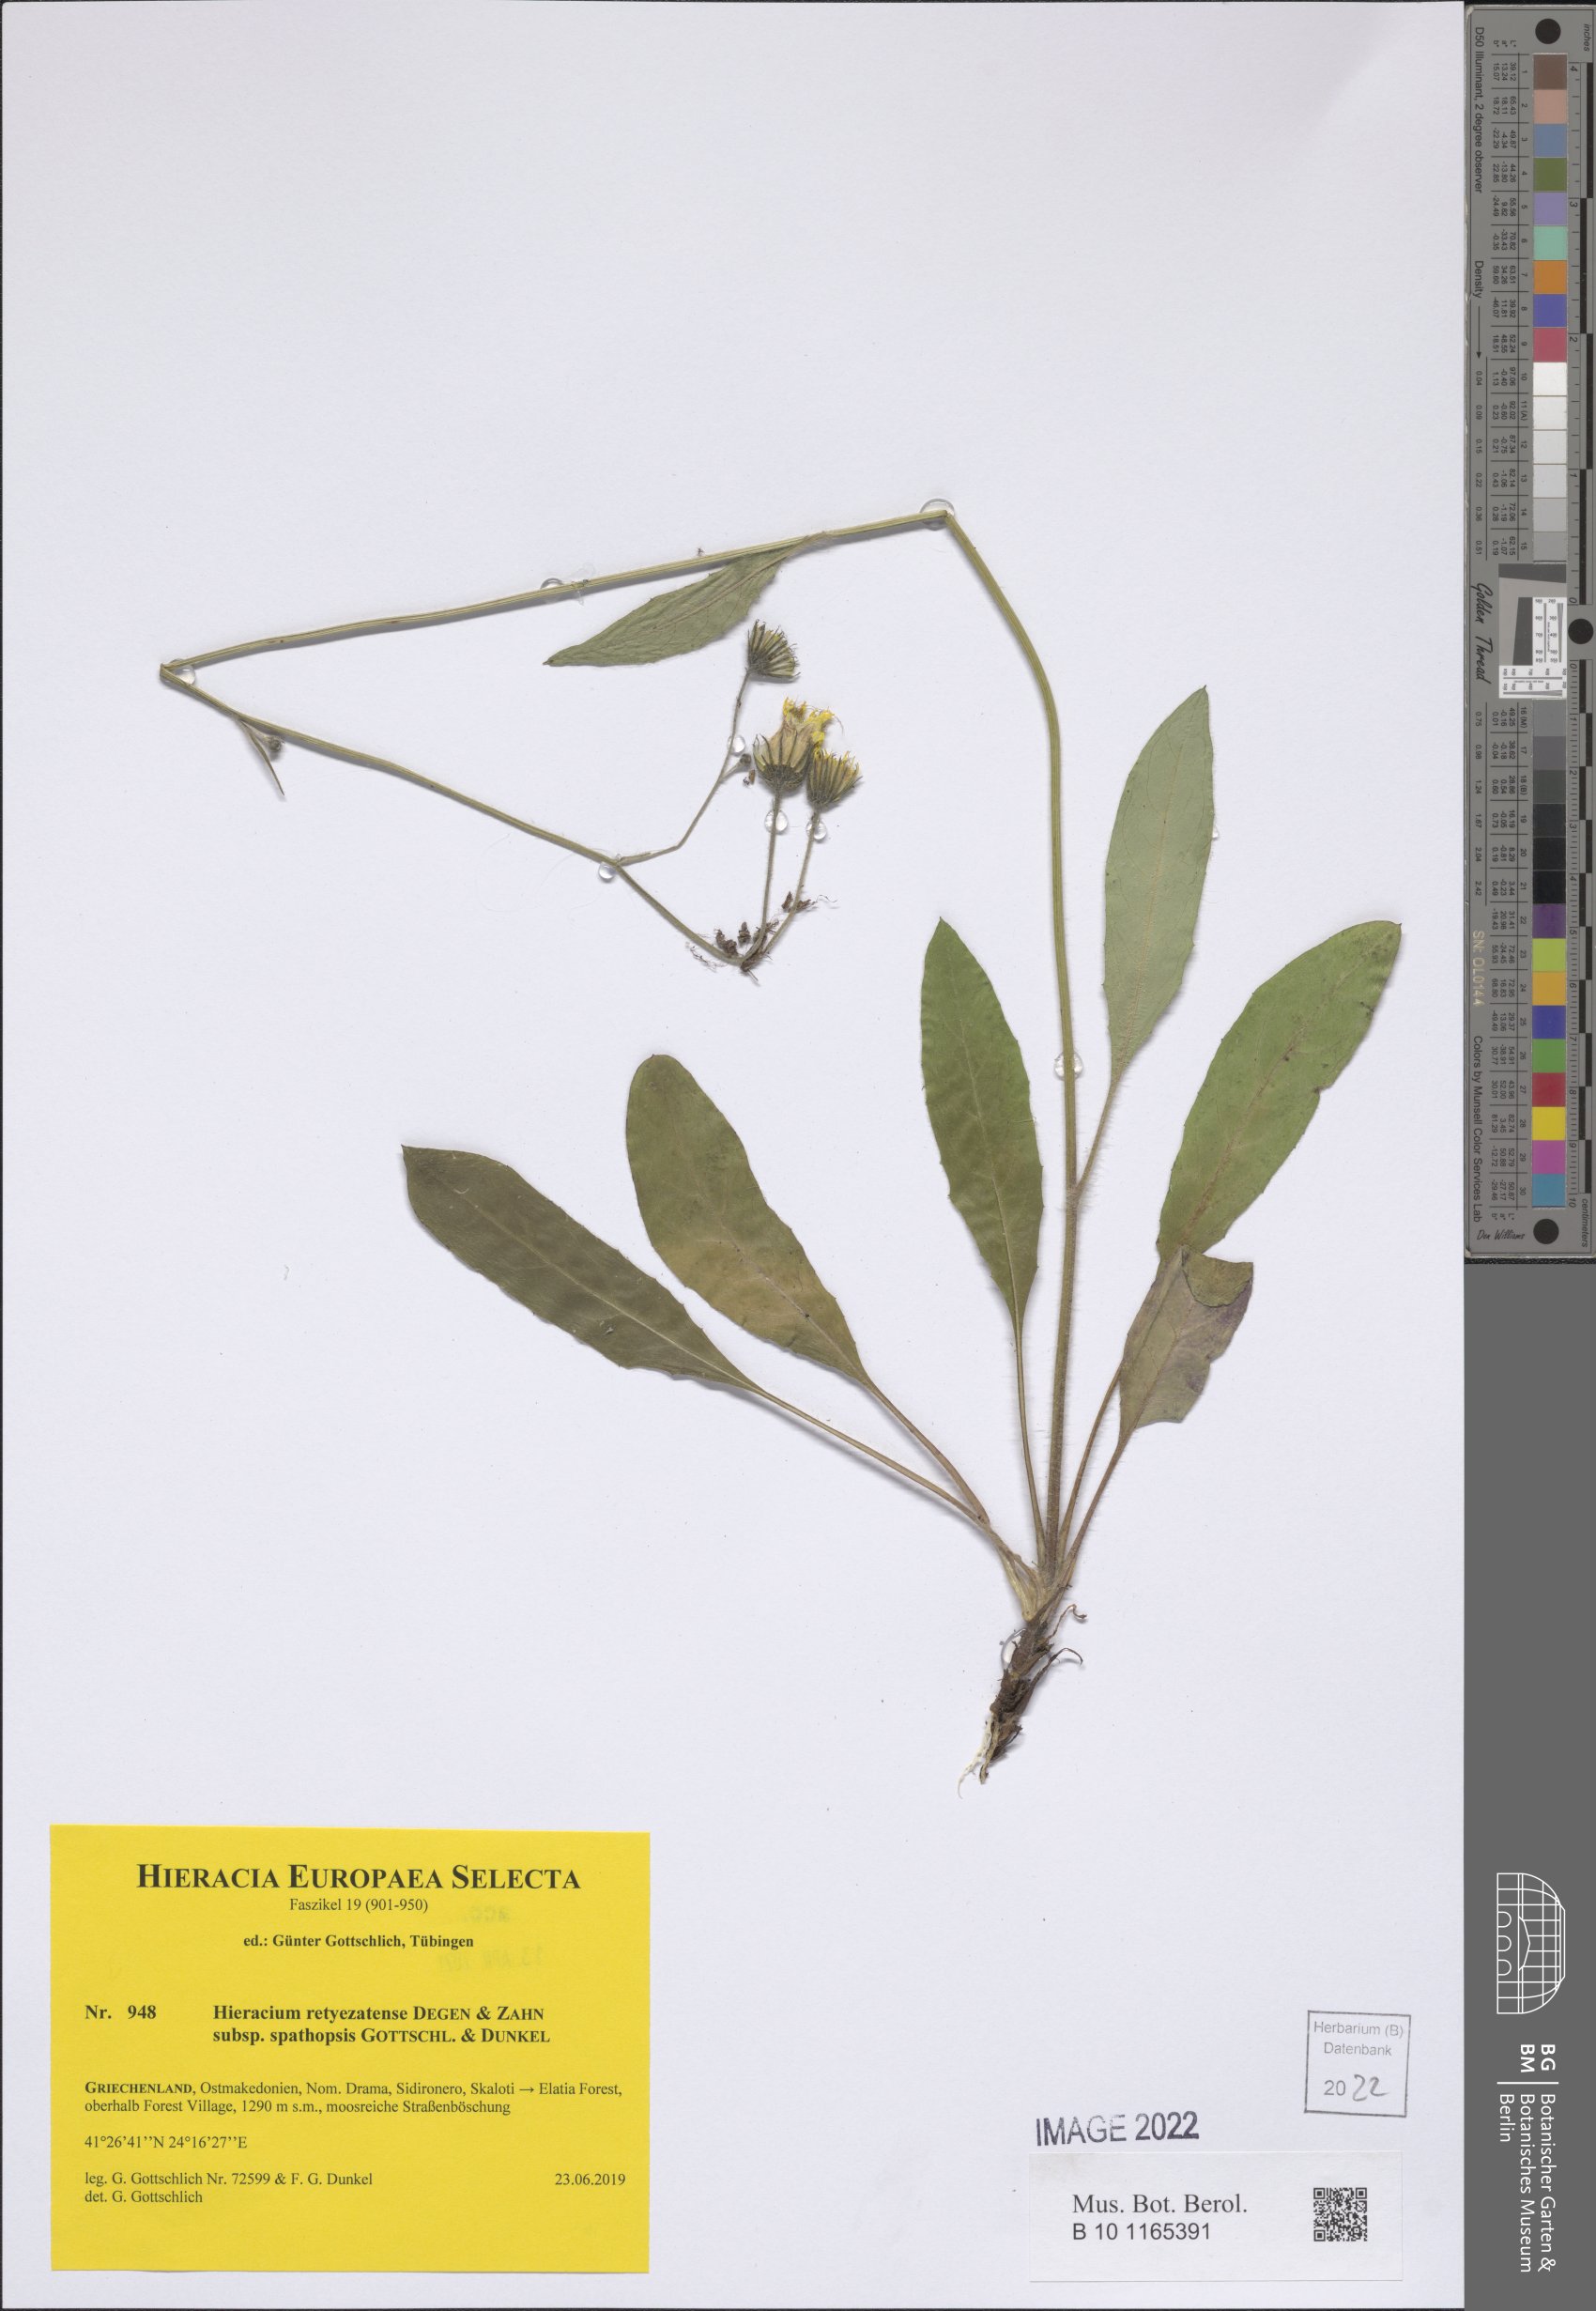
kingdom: Plantae
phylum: Tracheophyta
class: Magnoliopsida
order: Asterales
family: Asteraceae
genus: Hieracium
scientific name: Hieracium retyezatense
